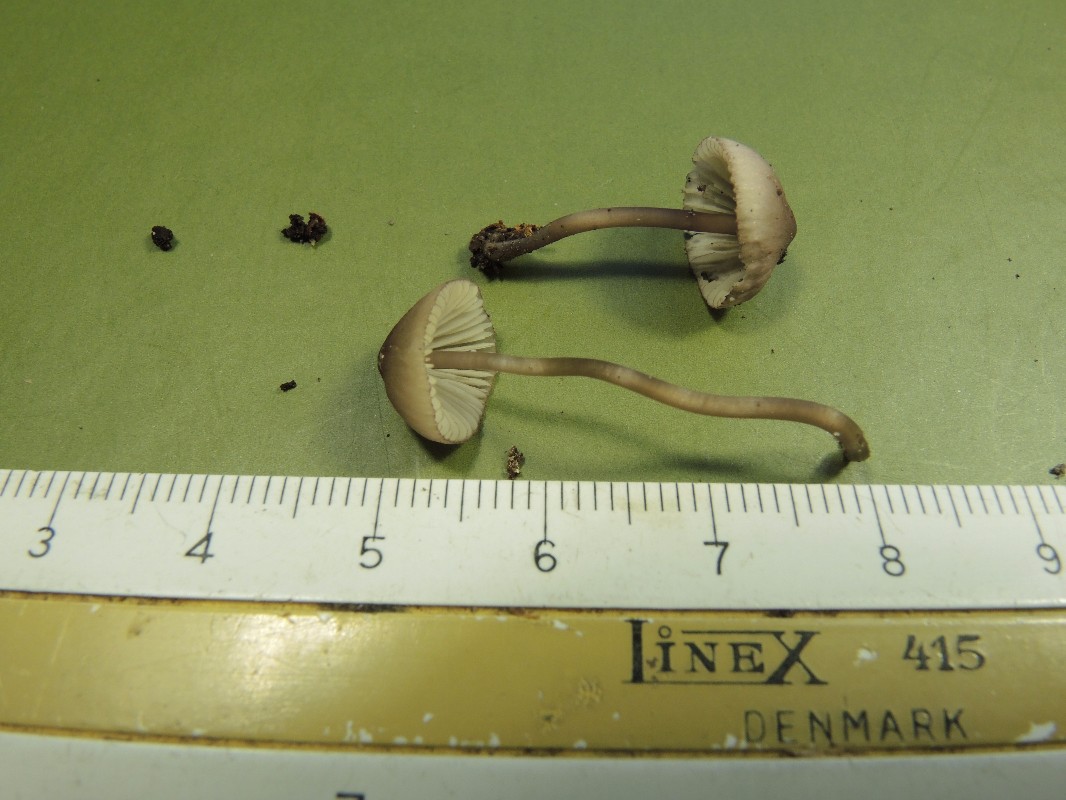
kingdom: Fungi
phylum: Basidiomycota
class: Agaricomycetes
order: Agaricales
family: Mycenaceae
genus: Mycena
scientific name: Mycena purpureofusca
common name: purpur-huesvamp
